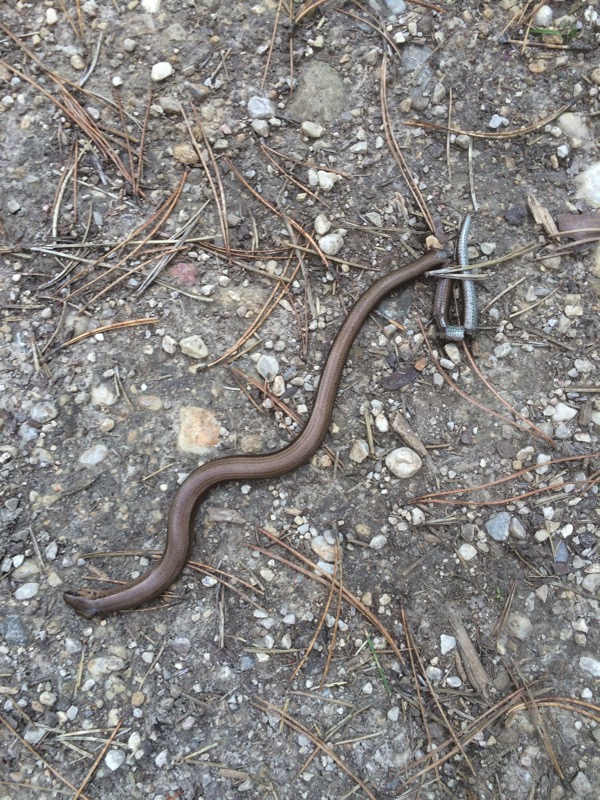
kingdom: Animalia
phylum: Chordata
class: Squamata
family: Anguidae
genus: Anguis
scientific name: Anguis fragilis
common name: Slow worm
